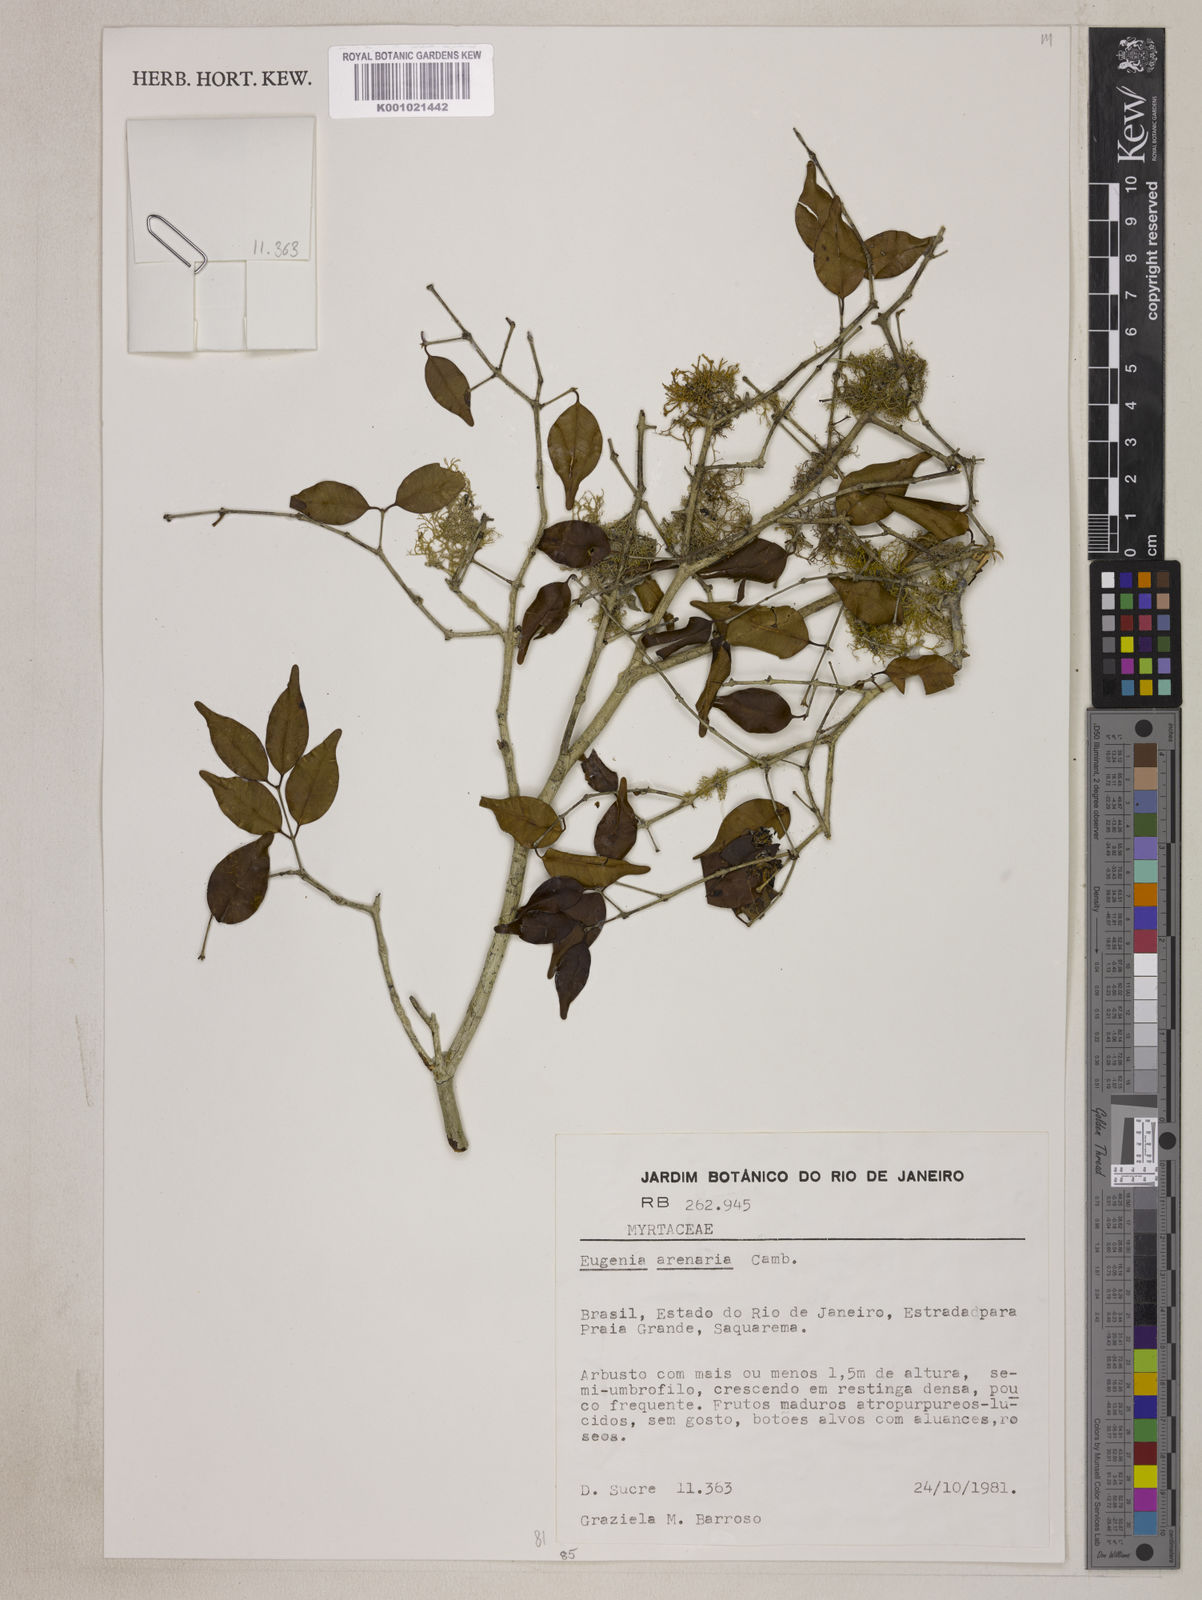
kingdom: Plantae
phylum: Tracheophyta
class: Magnoliopsida
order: Myrtales
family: Myrtaceae
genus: Eugenia
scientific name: Eugenia arenaria
